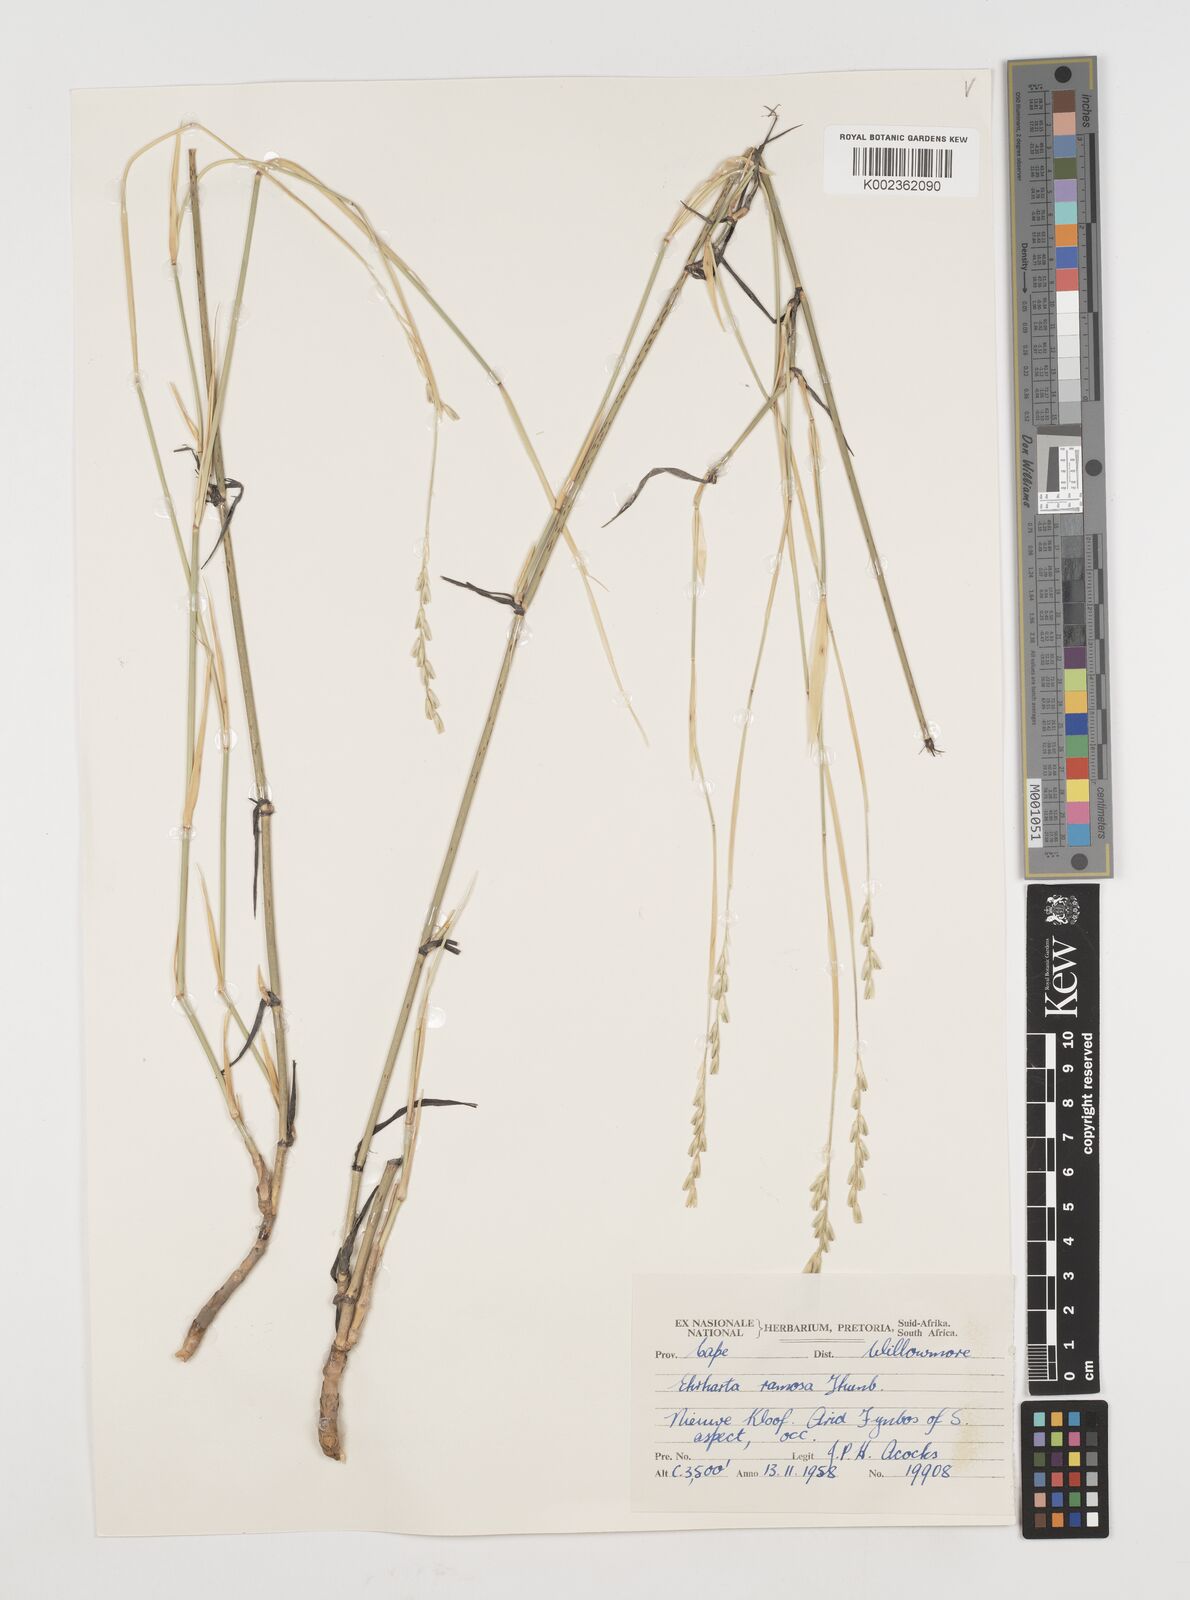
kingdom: Plantae
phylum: Tracheophyta
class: Liliopsida
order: Poales
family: Poaceae
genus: Ehrharta
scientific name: Ehrharta digyna
